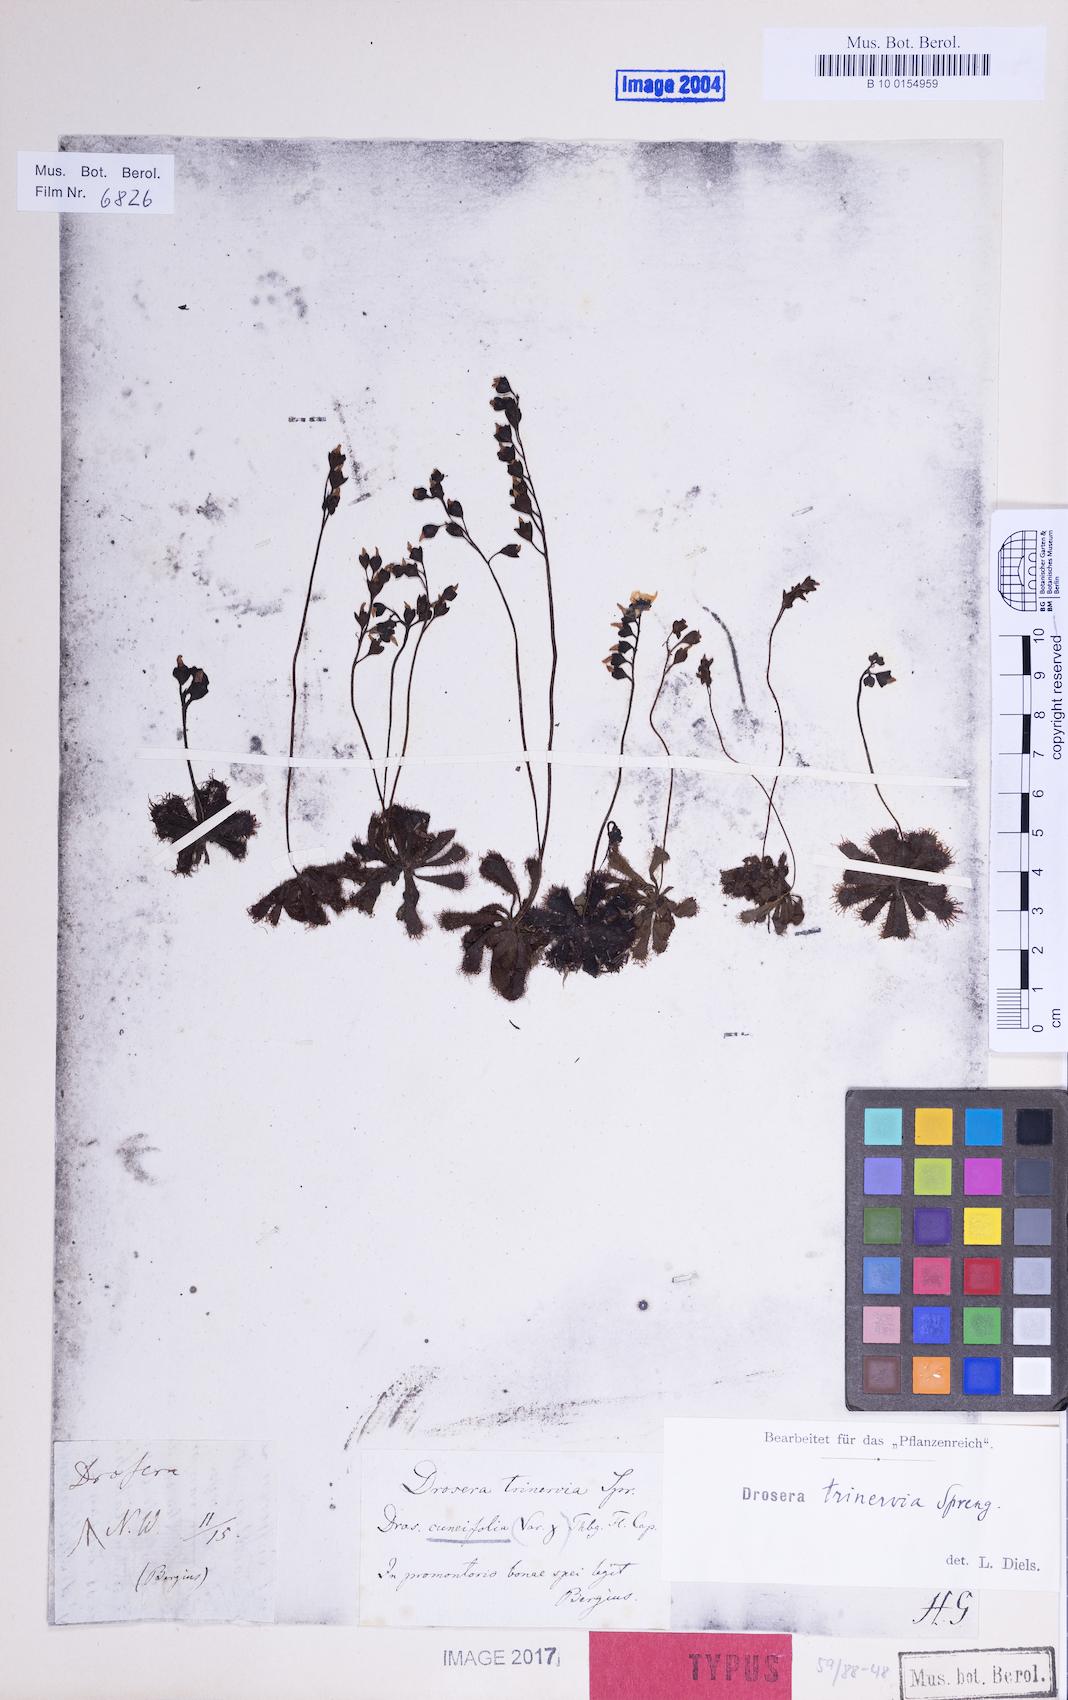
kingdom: Plantae
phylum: Tracheophyta
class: Magnoliopsida
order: Caryophyllales
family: Droseraceae
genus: Drosera
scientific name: Drosera trinervia
